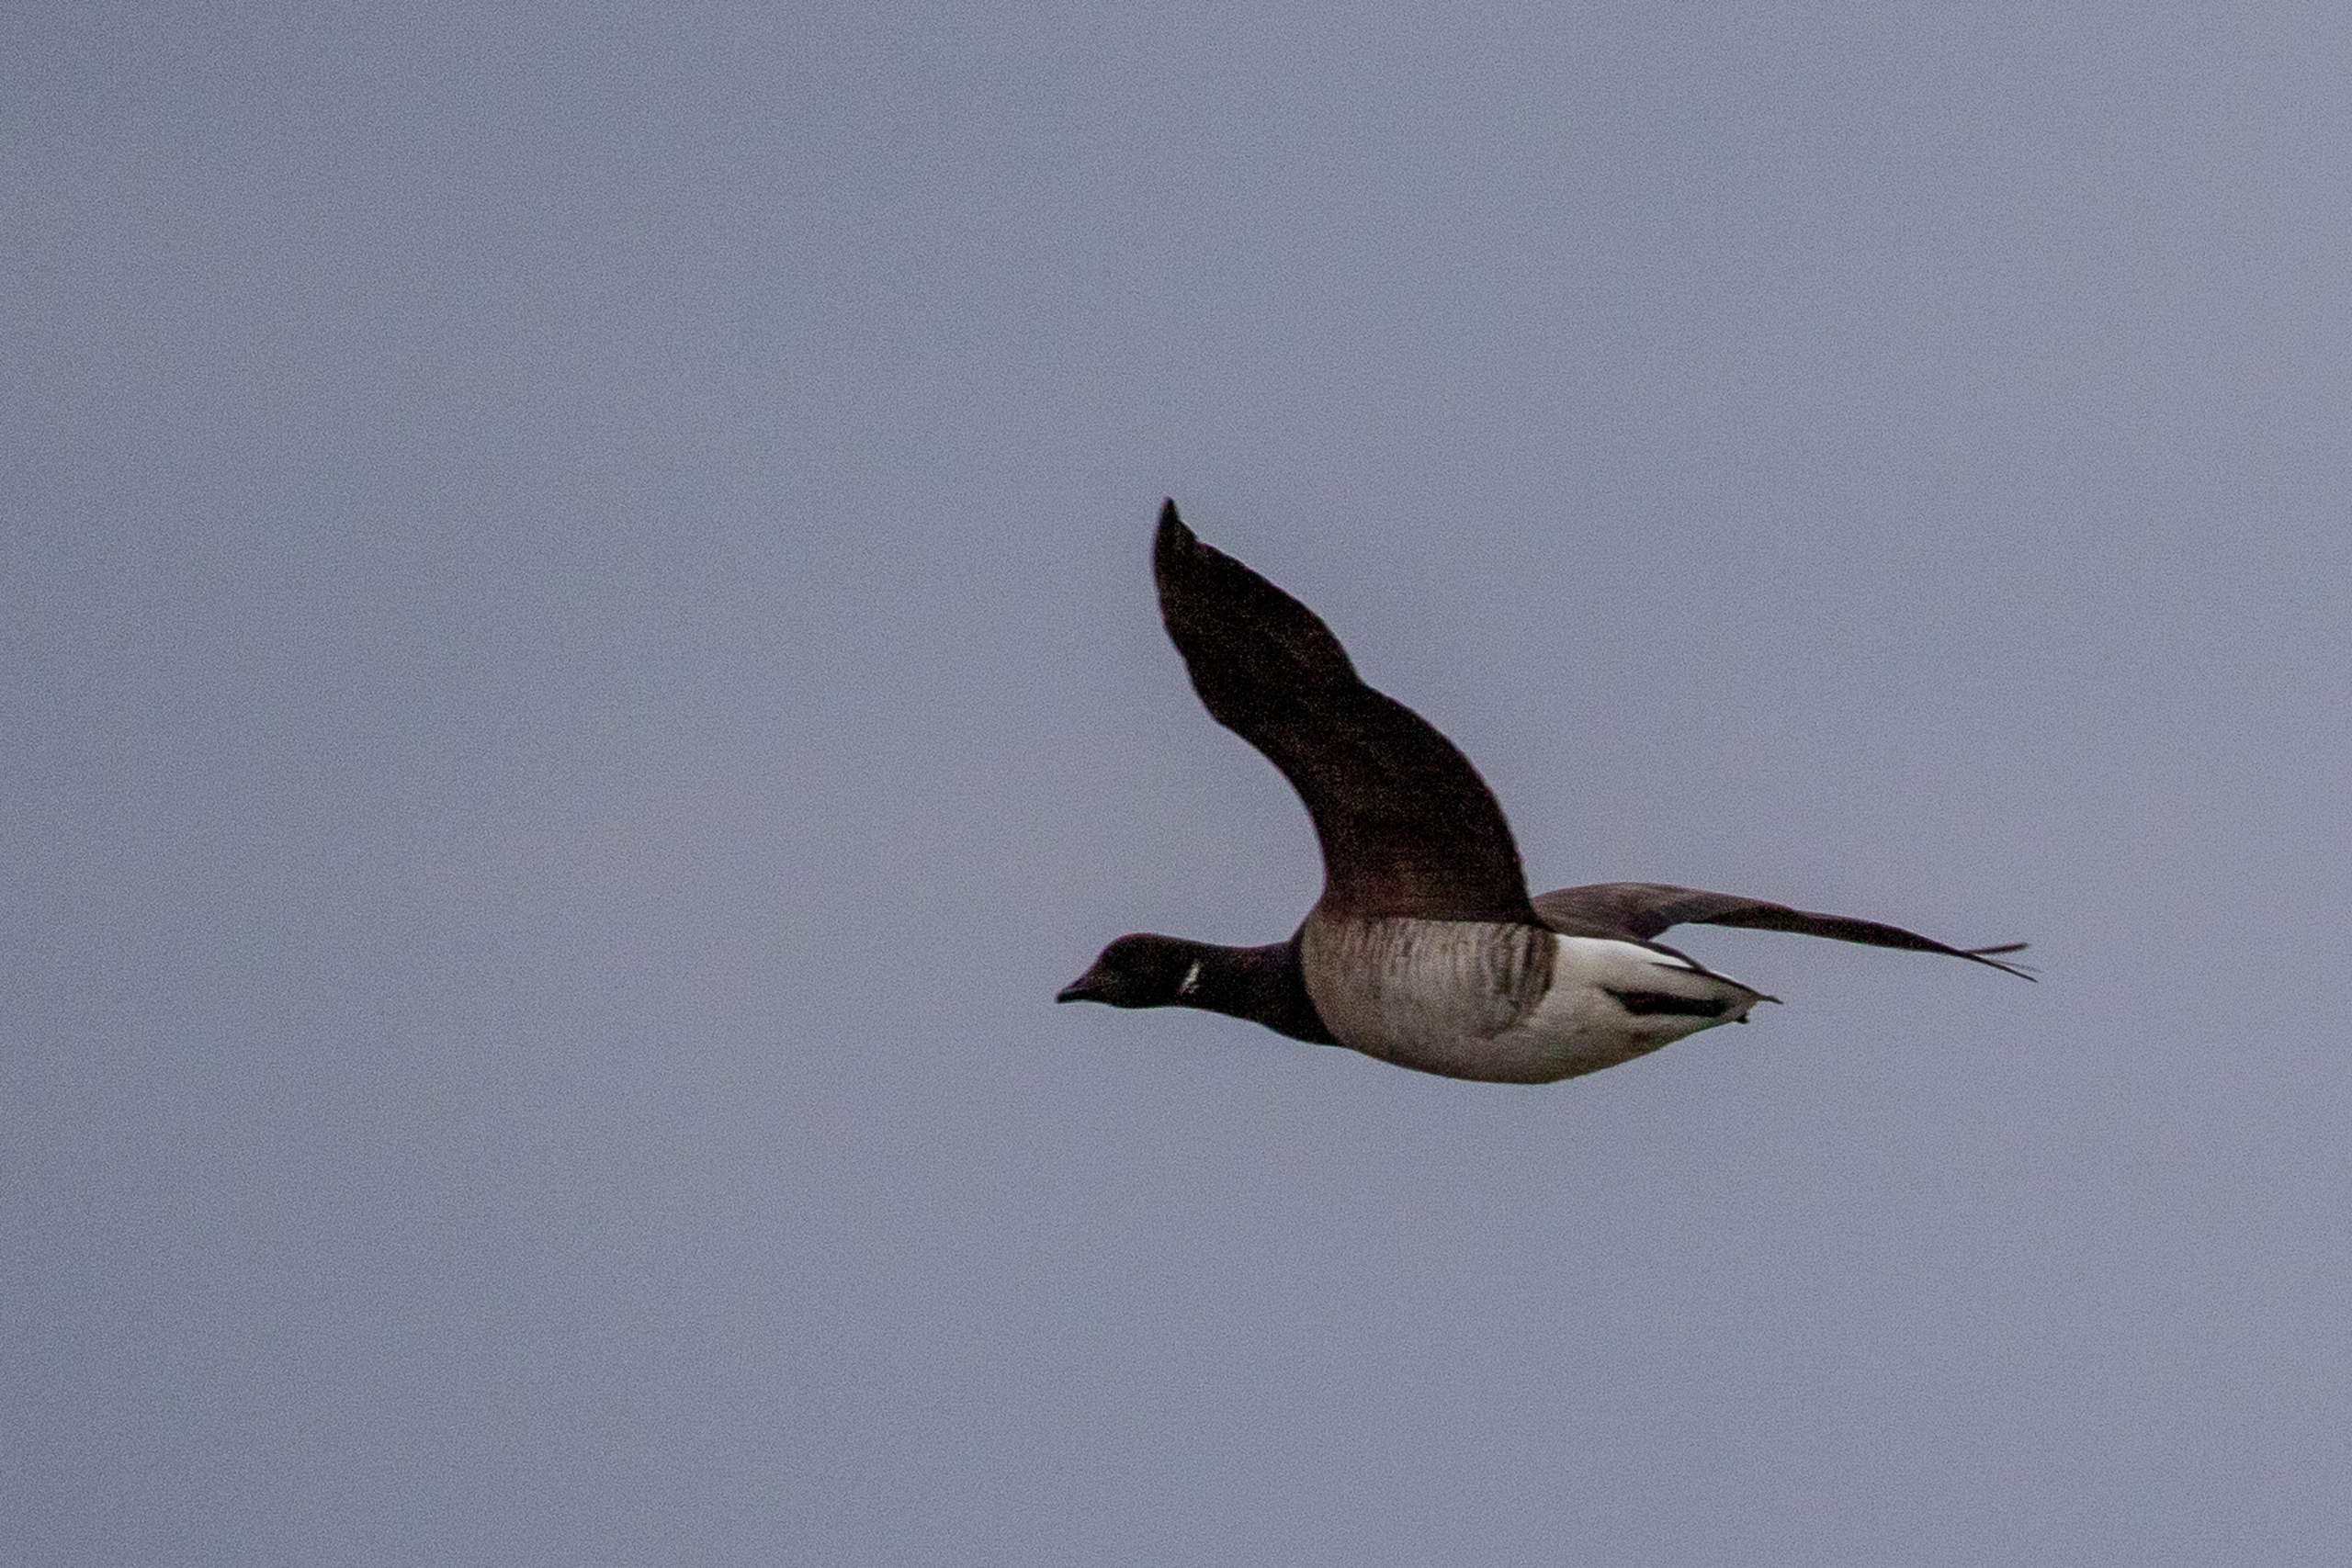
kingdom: Animalia
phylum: Chordata
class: Aves
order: Anseriformes
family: Anatidae
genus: Branta
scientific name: Branta bernicla
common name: Lysbuget knortegås
